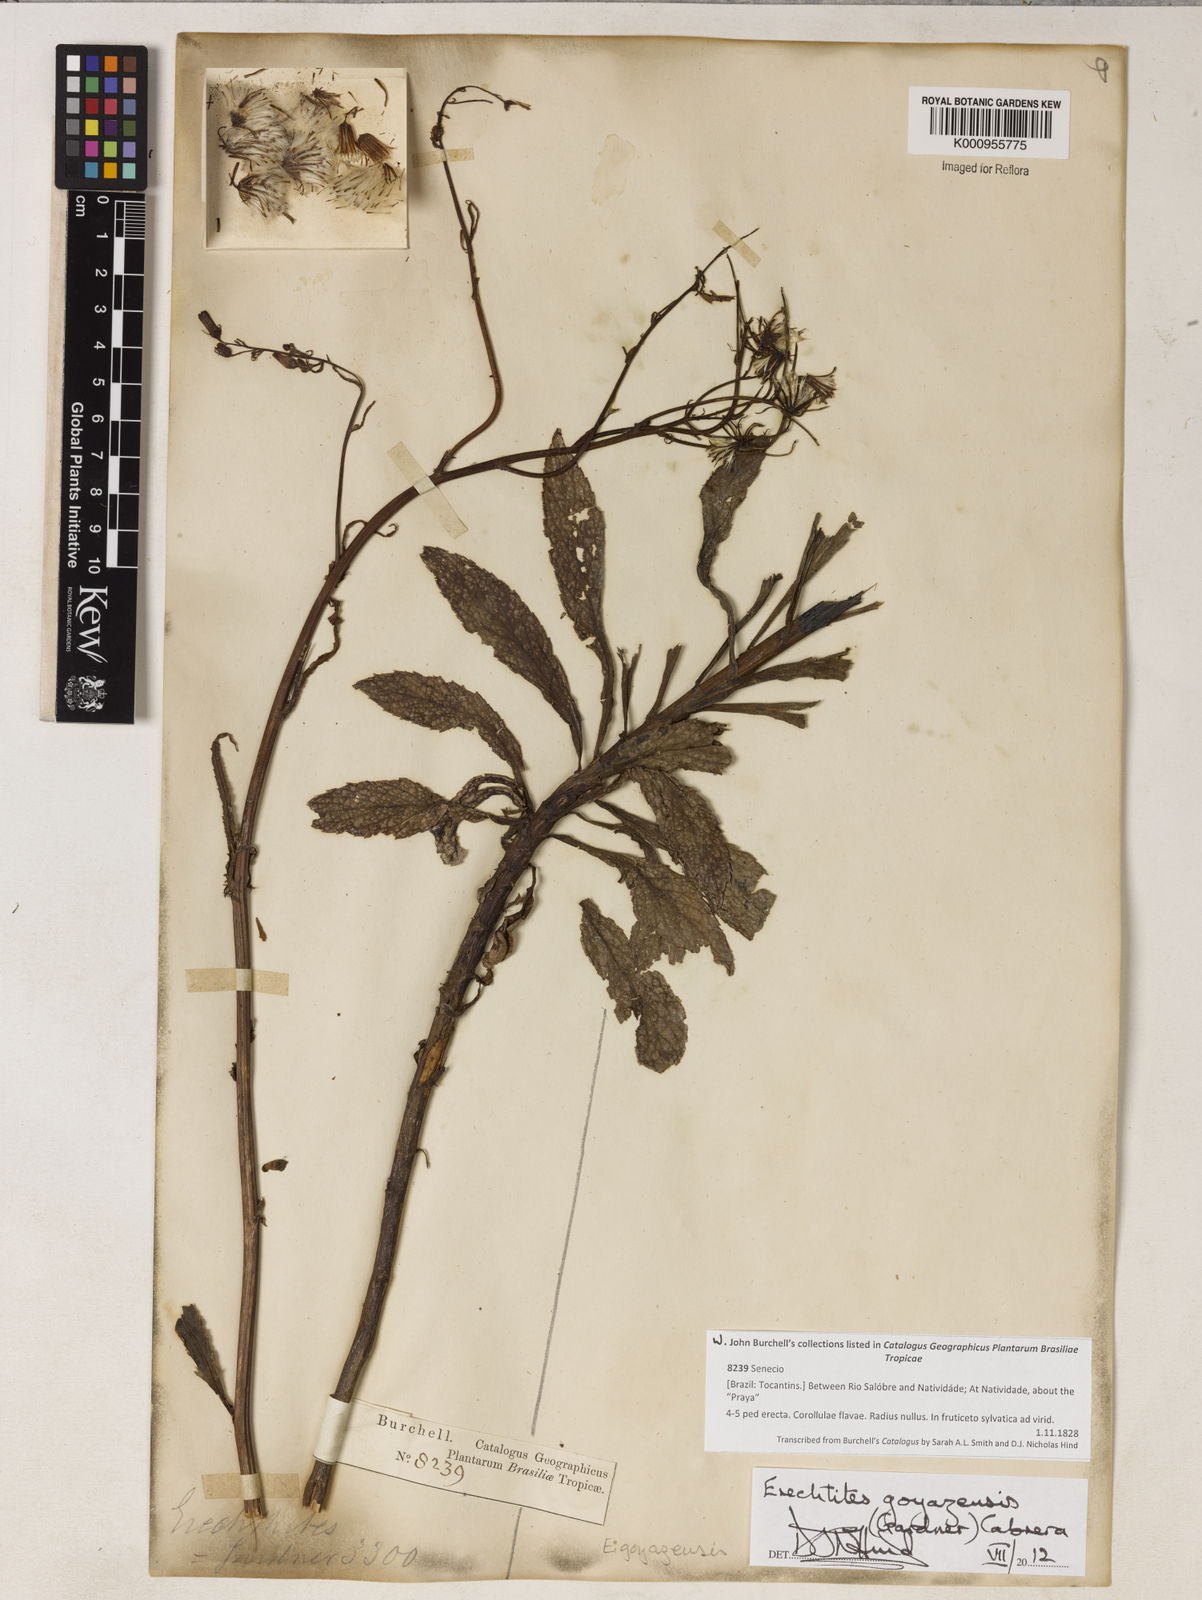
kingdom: Plantae
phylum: Tracheophyta
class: Magnoliopsida
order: Asterales
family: Asteraceae
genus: Erechtites
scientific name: Erechtites goyazensis
